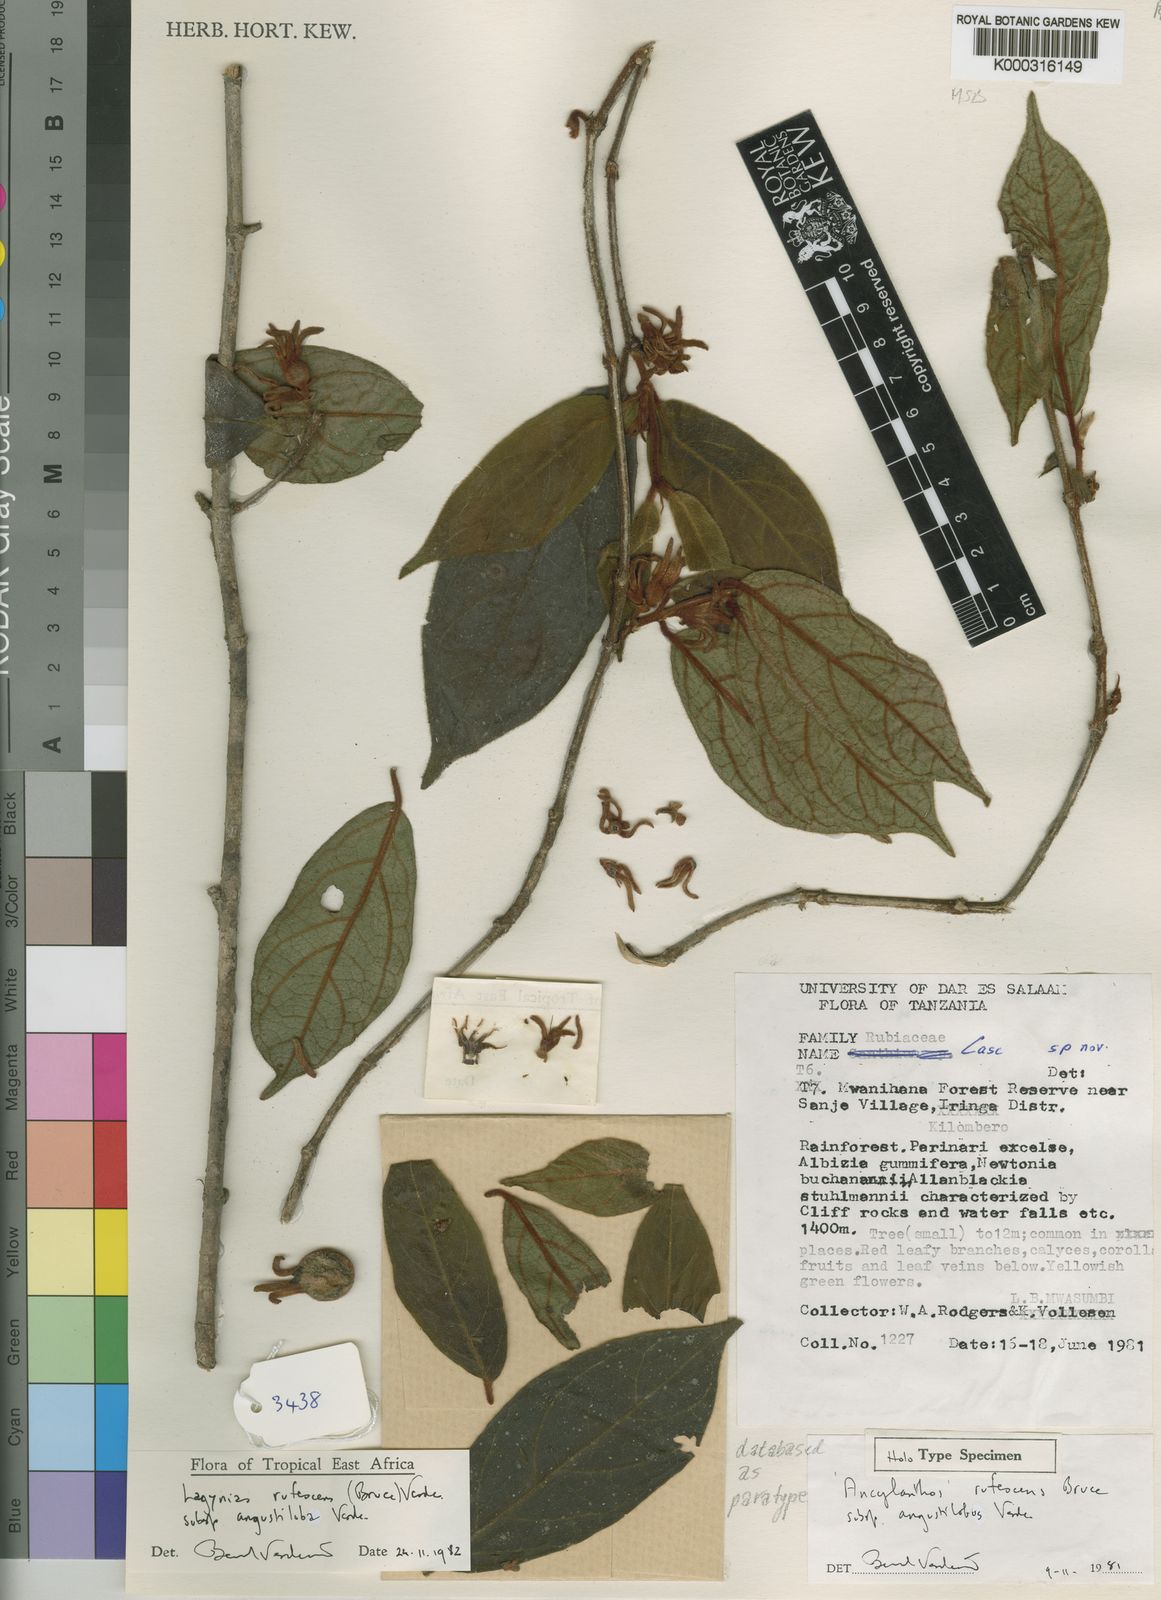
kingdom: Plantae
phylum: Tracheophyta
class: Magnoliopsida
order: Gentianales
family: Rubiaceae
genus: Vangueria
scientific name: Vangueria rufescens
